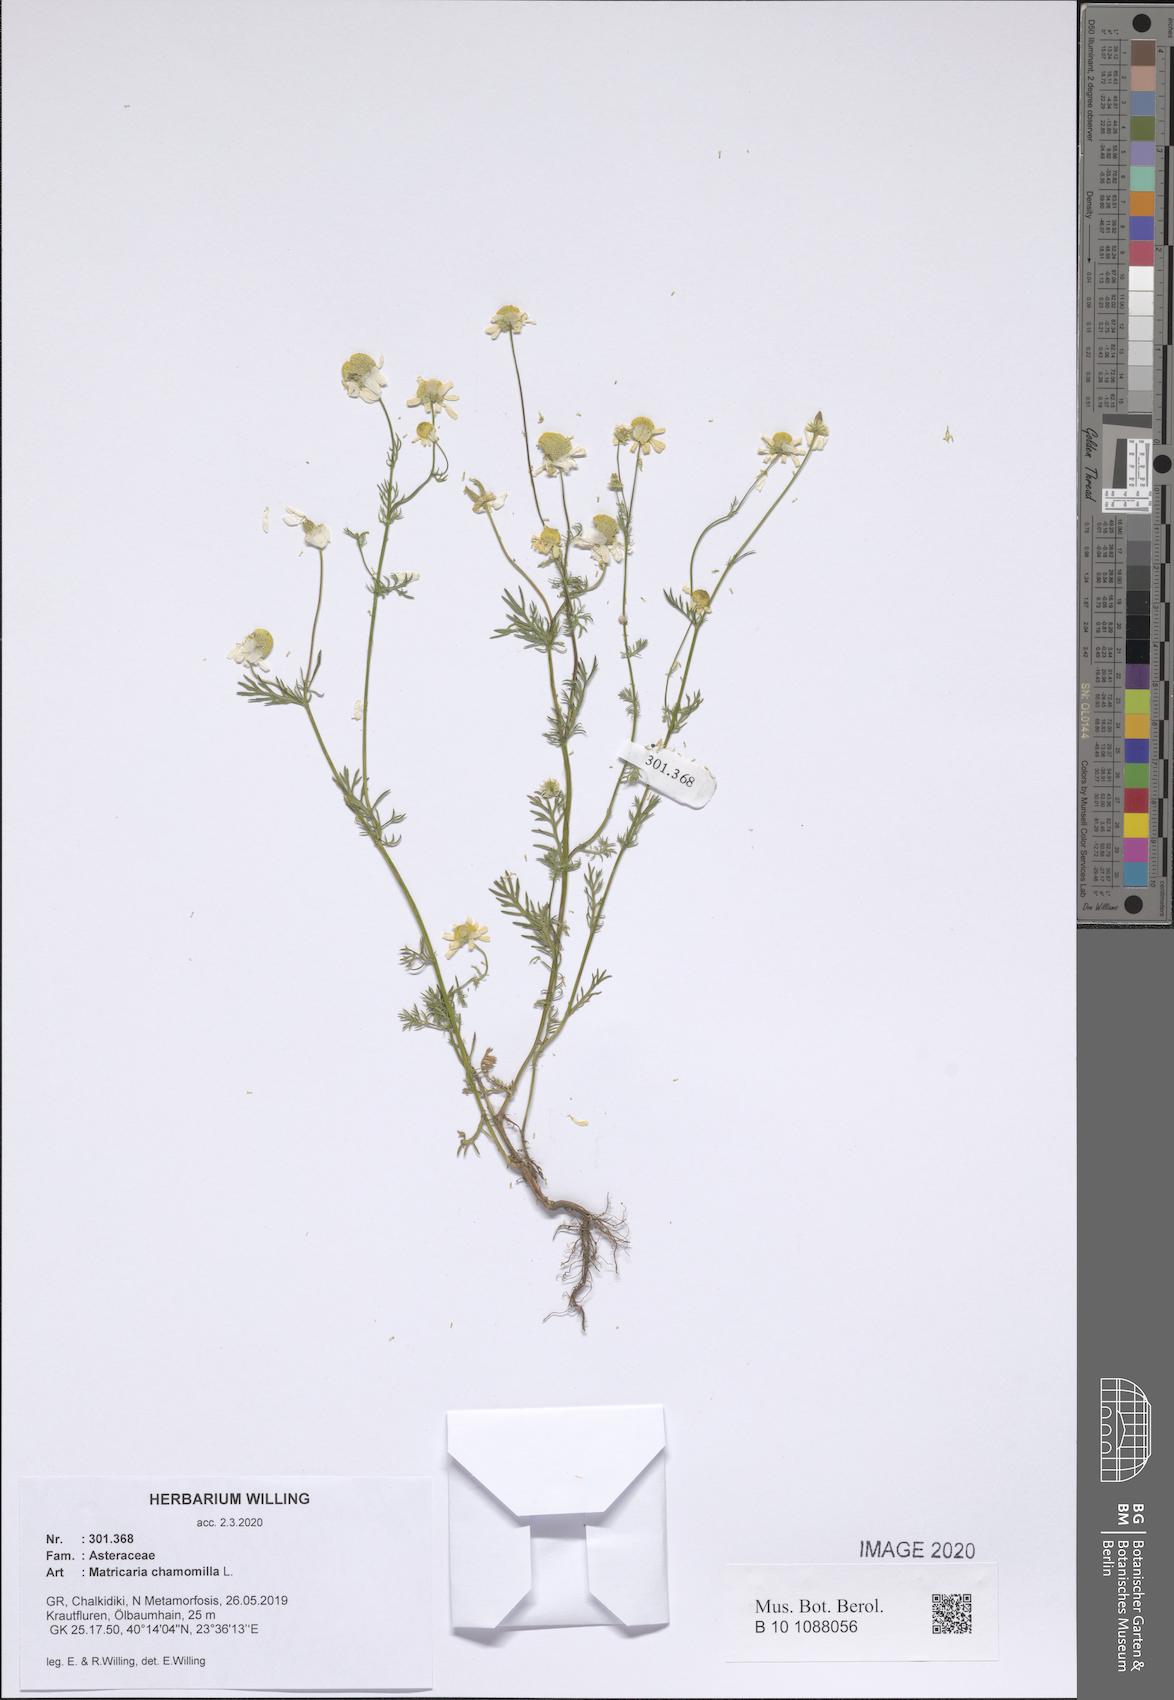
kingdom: Plantae
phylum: Tracheophyta
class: Magnoliopsida
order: Asterales
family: Asteraceae
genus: Matricaria
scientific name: Matricaria chamomilla
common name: Scented mayweed
